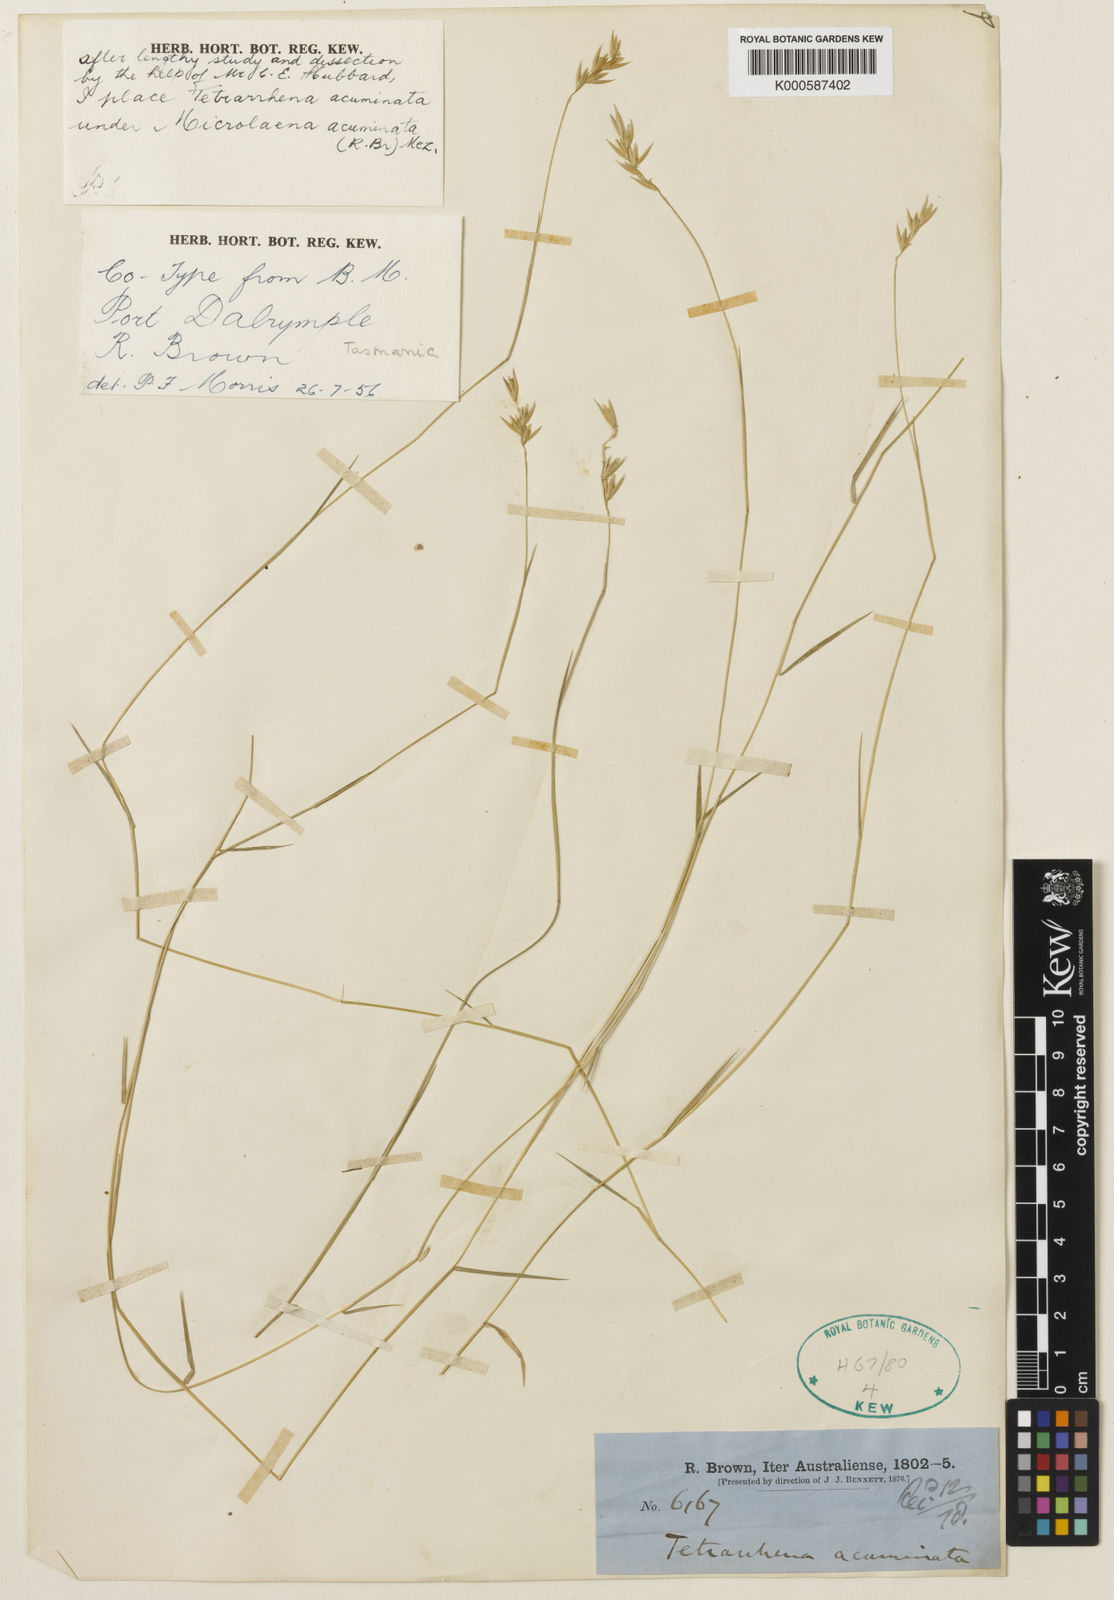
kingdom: Plantae
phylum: Tracheophyta
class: Liliopsida
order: Poales
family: Poaceae
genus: Tetrarrhena
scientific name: Tetrarrhena acuminata
